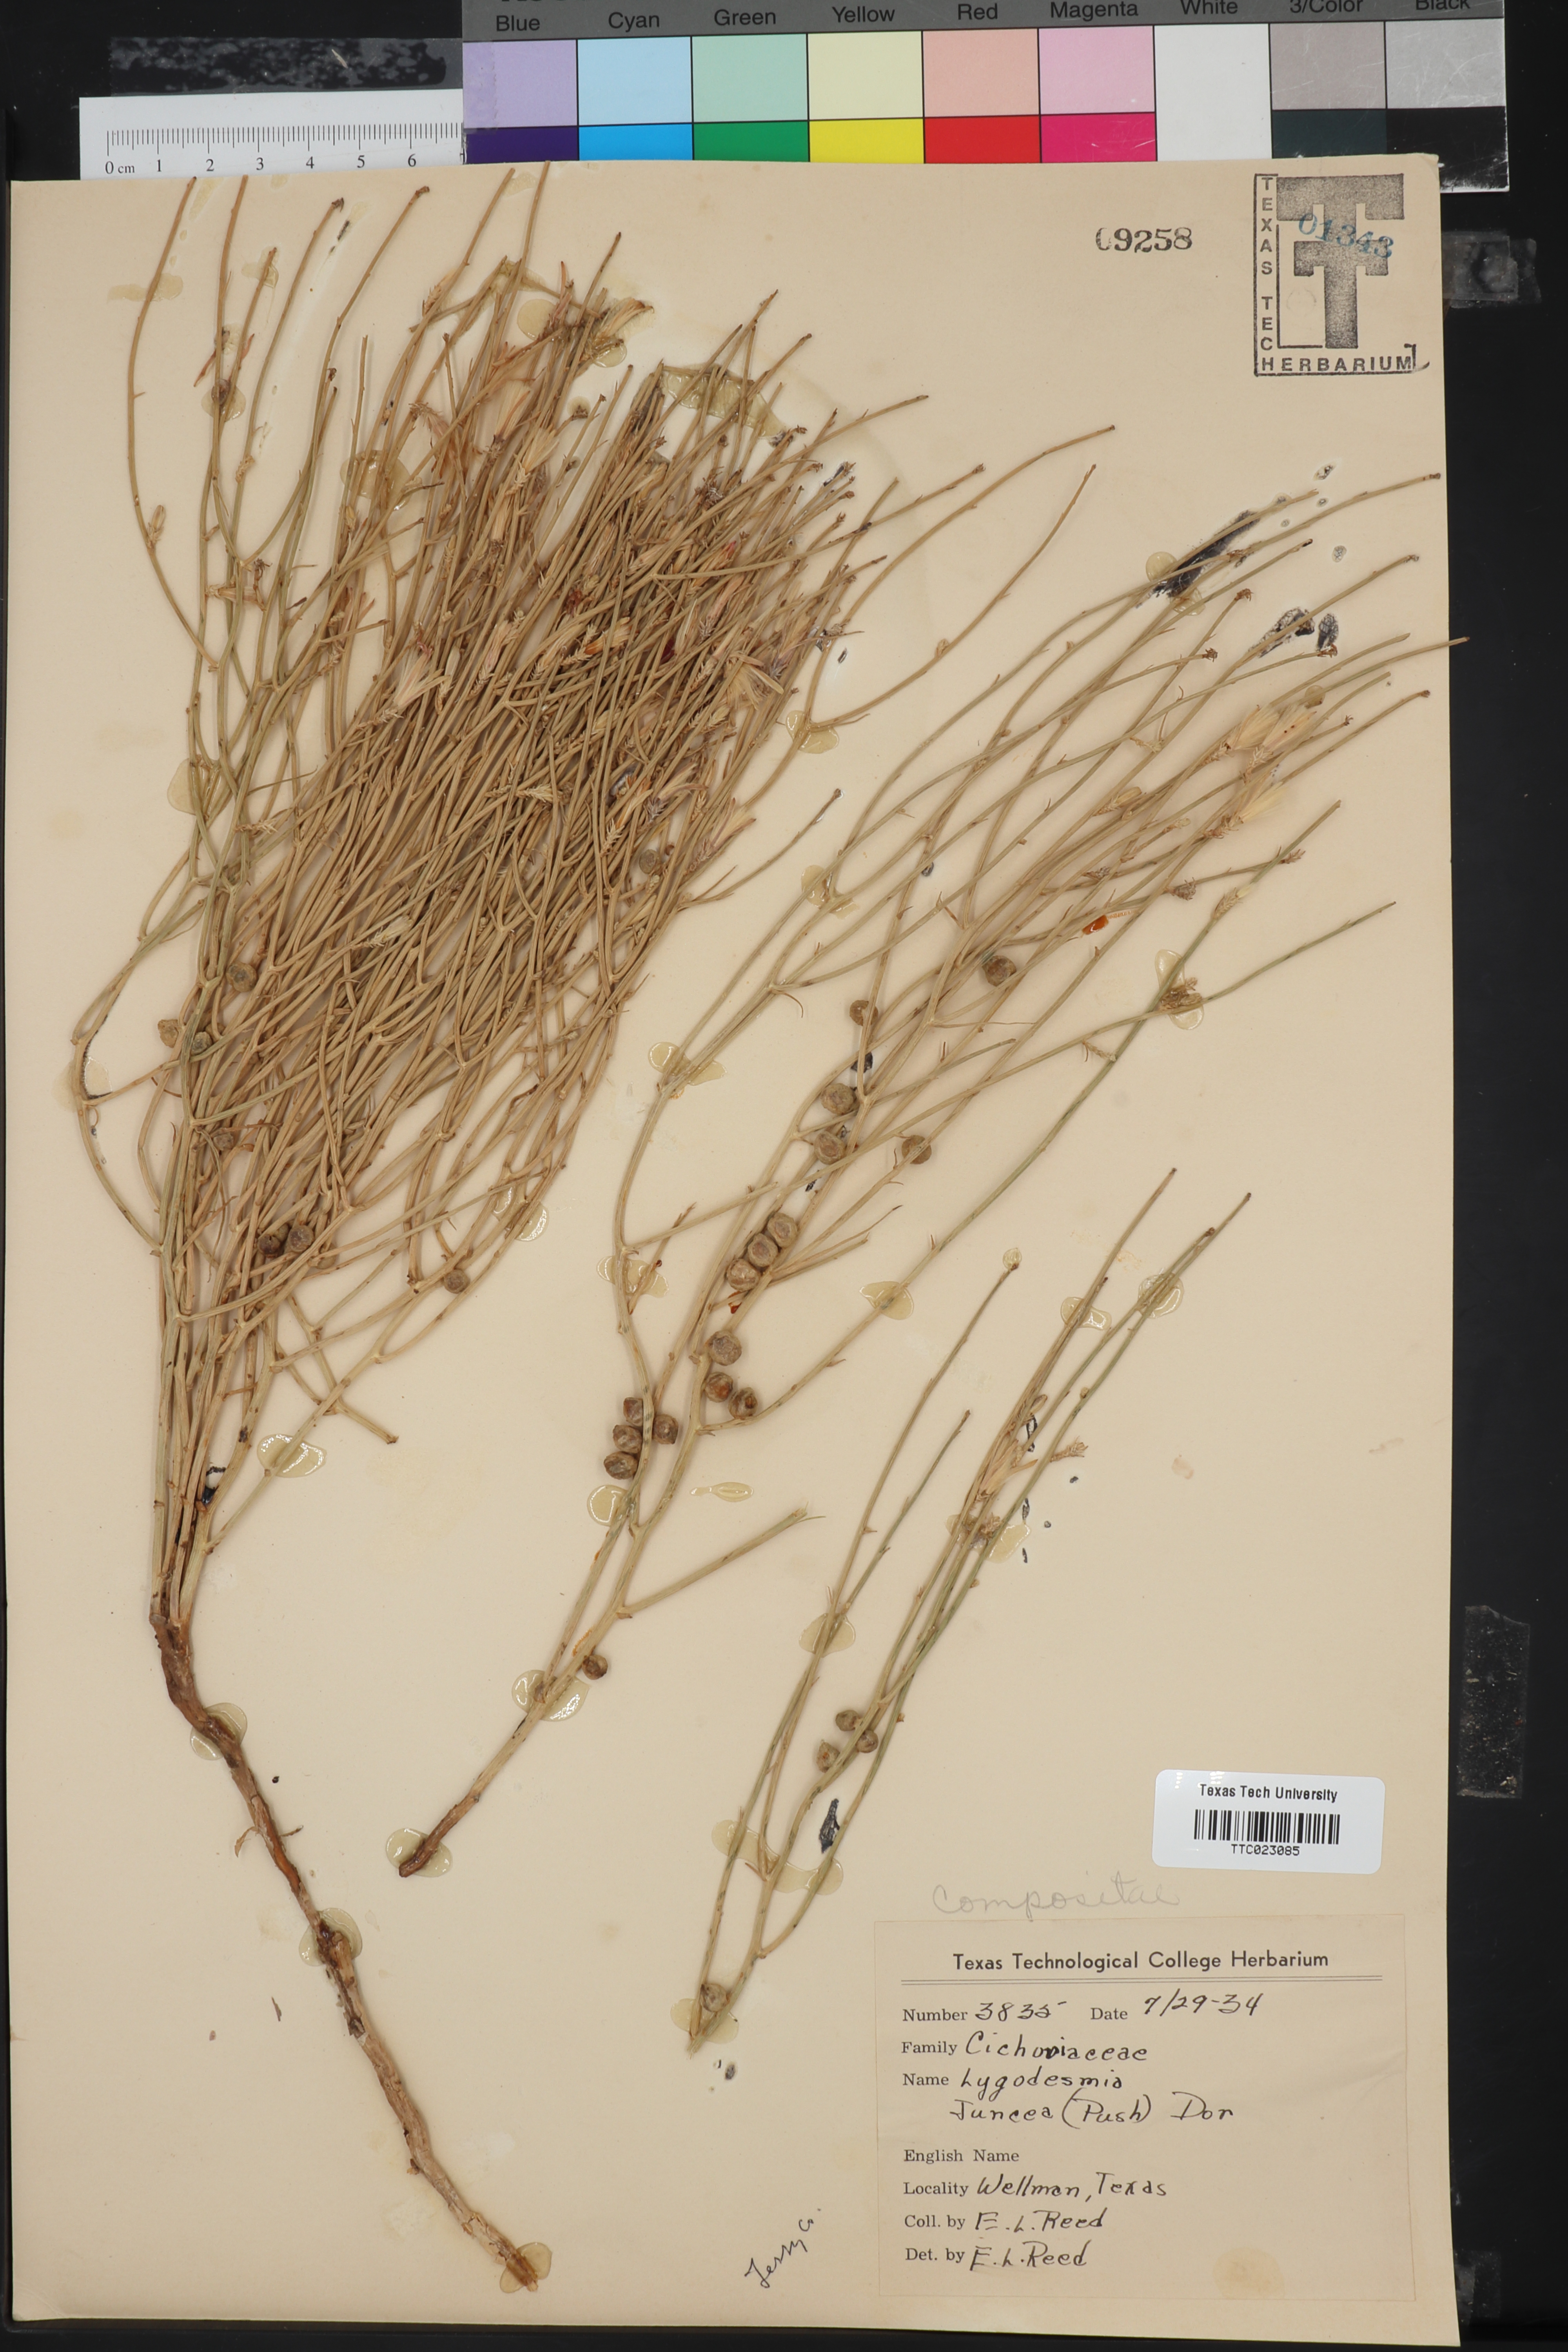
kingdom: Plantae
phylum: Tracheophyta
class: Magnoliopsida
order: Asterales
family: Asteraceae
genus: Lygodesmia
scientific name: Lygodesmia juncea
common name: Common skeletonweed
